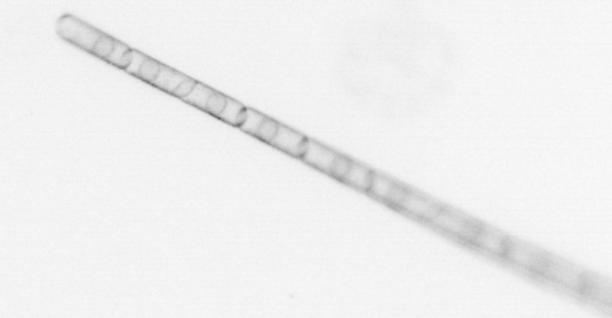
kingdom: Chromista
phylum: Ochrophyta
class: Bacillariophyceae
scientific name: Bacillariophyceae
